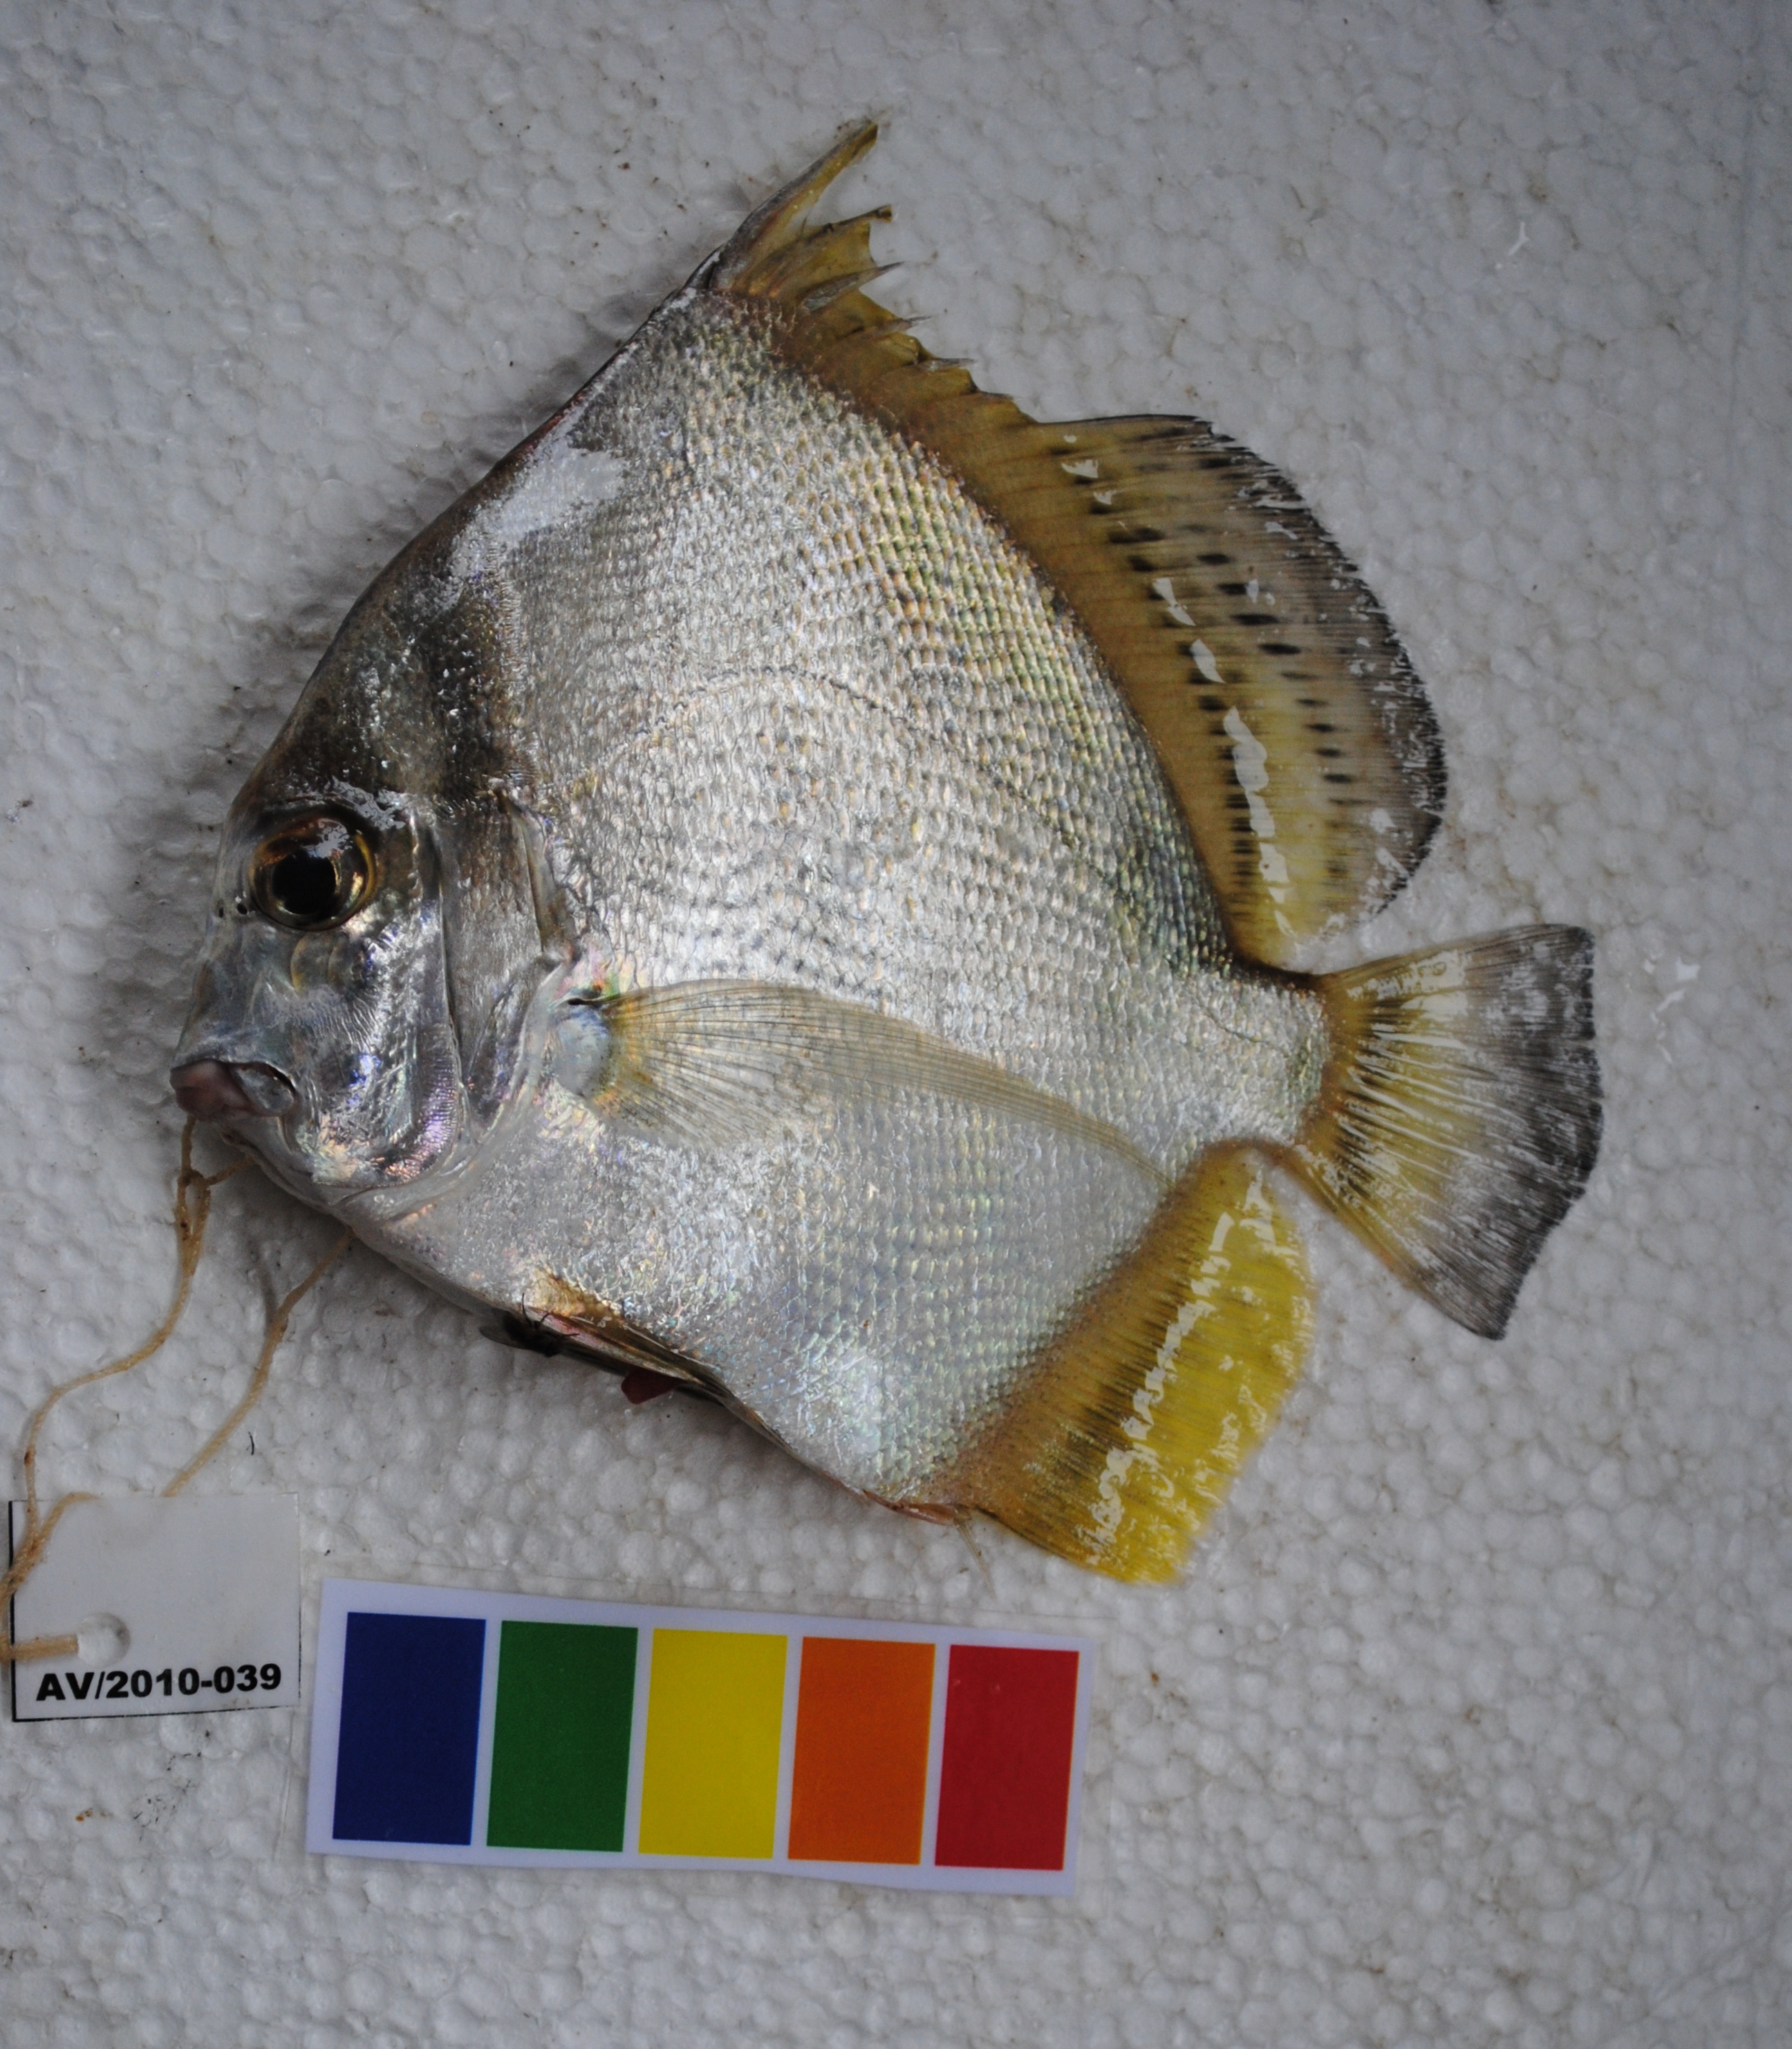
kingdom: Animalia
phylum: Chordata
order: Perciformes
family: Drepaneidae
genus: Drepane
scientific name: Drepane longimana
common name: Concertina fish
